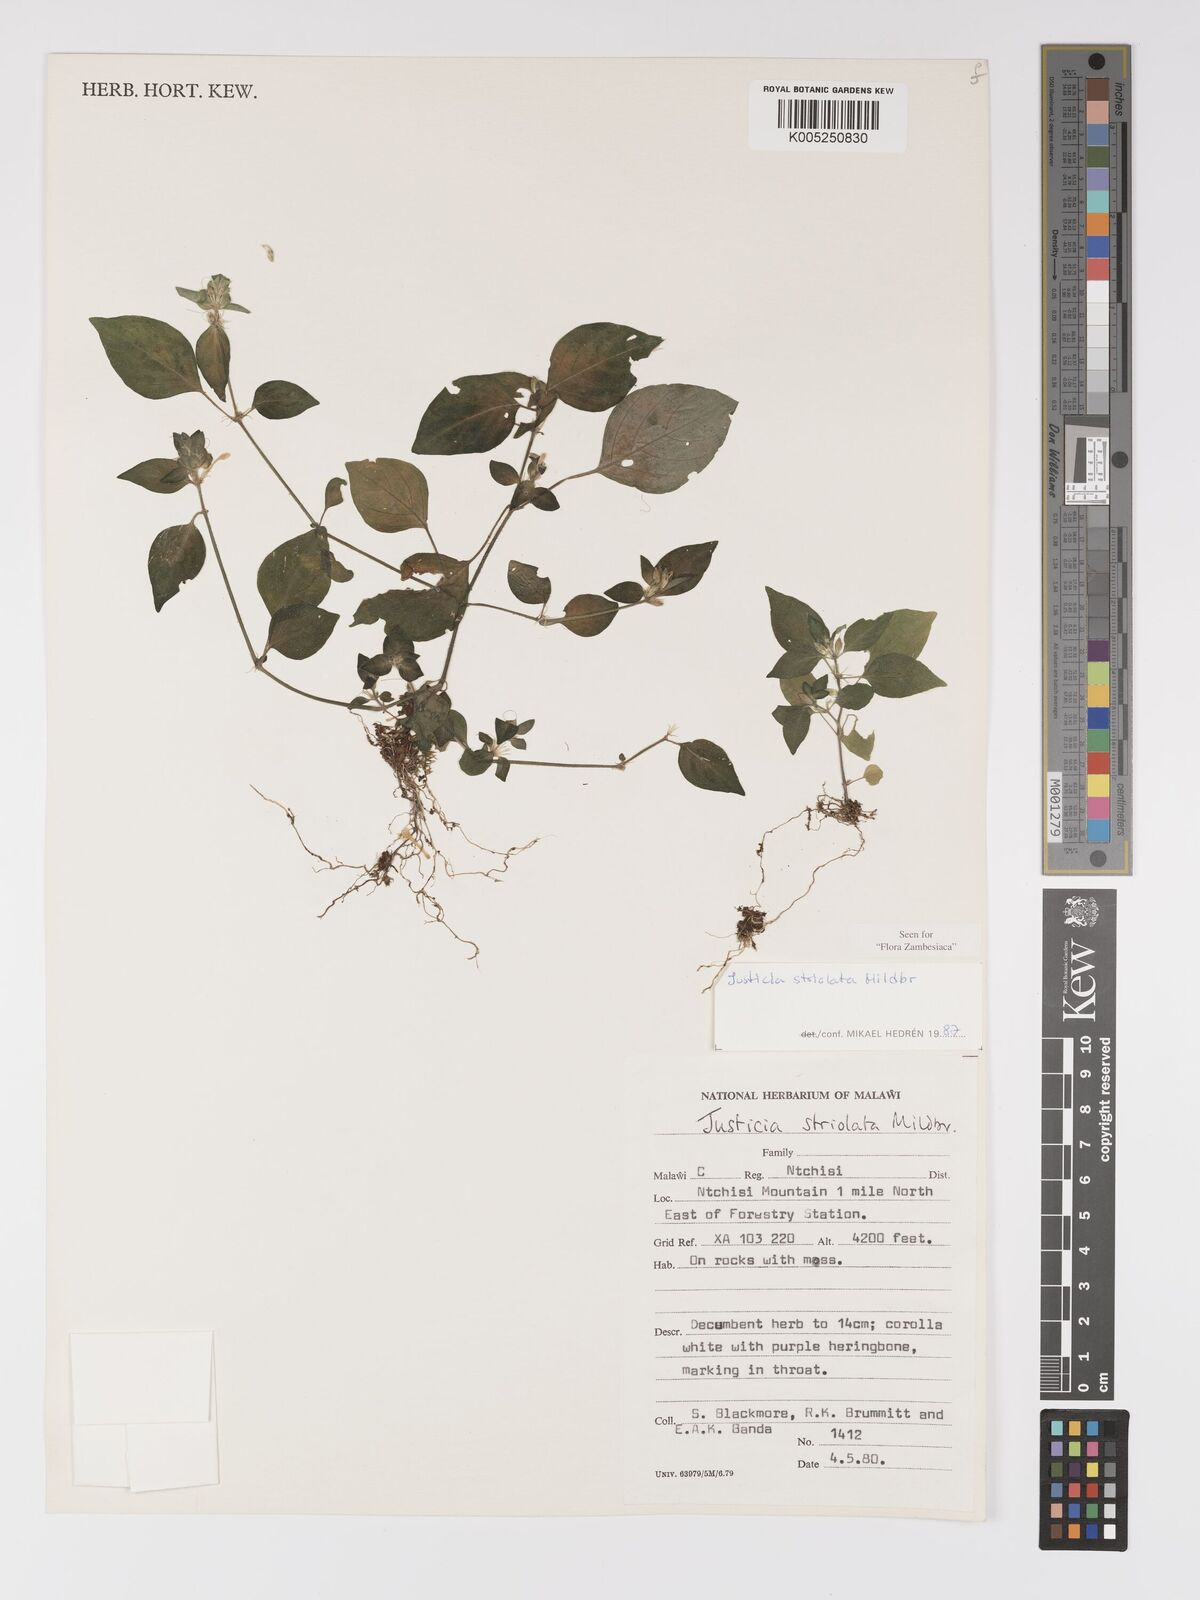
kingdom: Plantae
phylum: Tracheophyta
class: Magnoliopsida
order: Lamiales
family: Acanthaceae
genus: Justicia
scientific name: Justicia striolata
